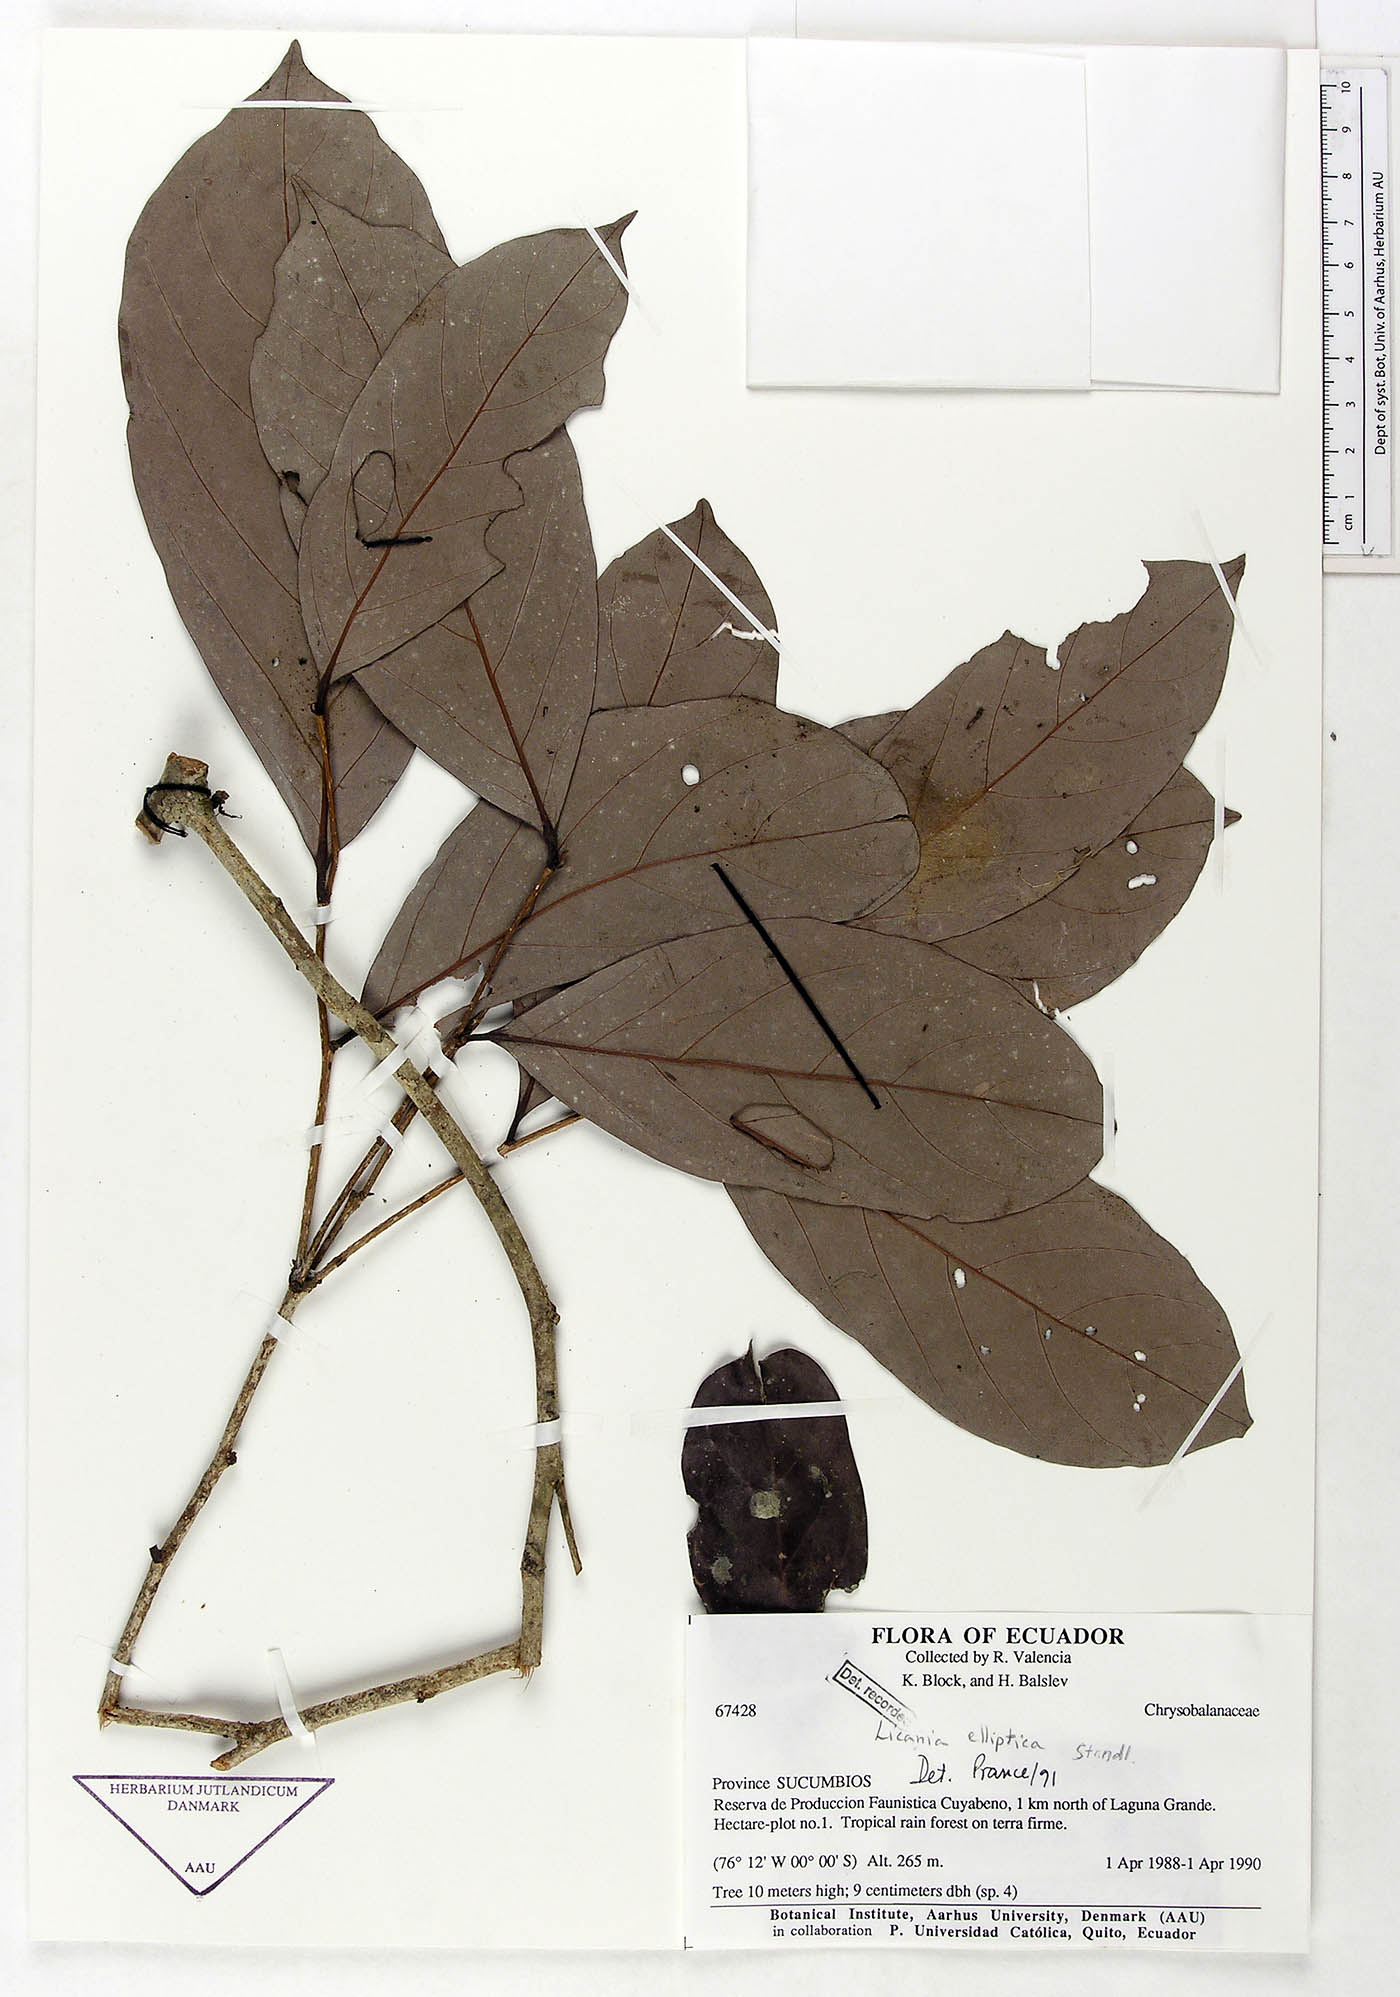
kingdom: Plantae
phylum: Tracheophyta
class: Magnoliopsida
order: Malpighiales
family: Chrysobalanaceae
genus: Licania
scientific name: Licania elliptica
